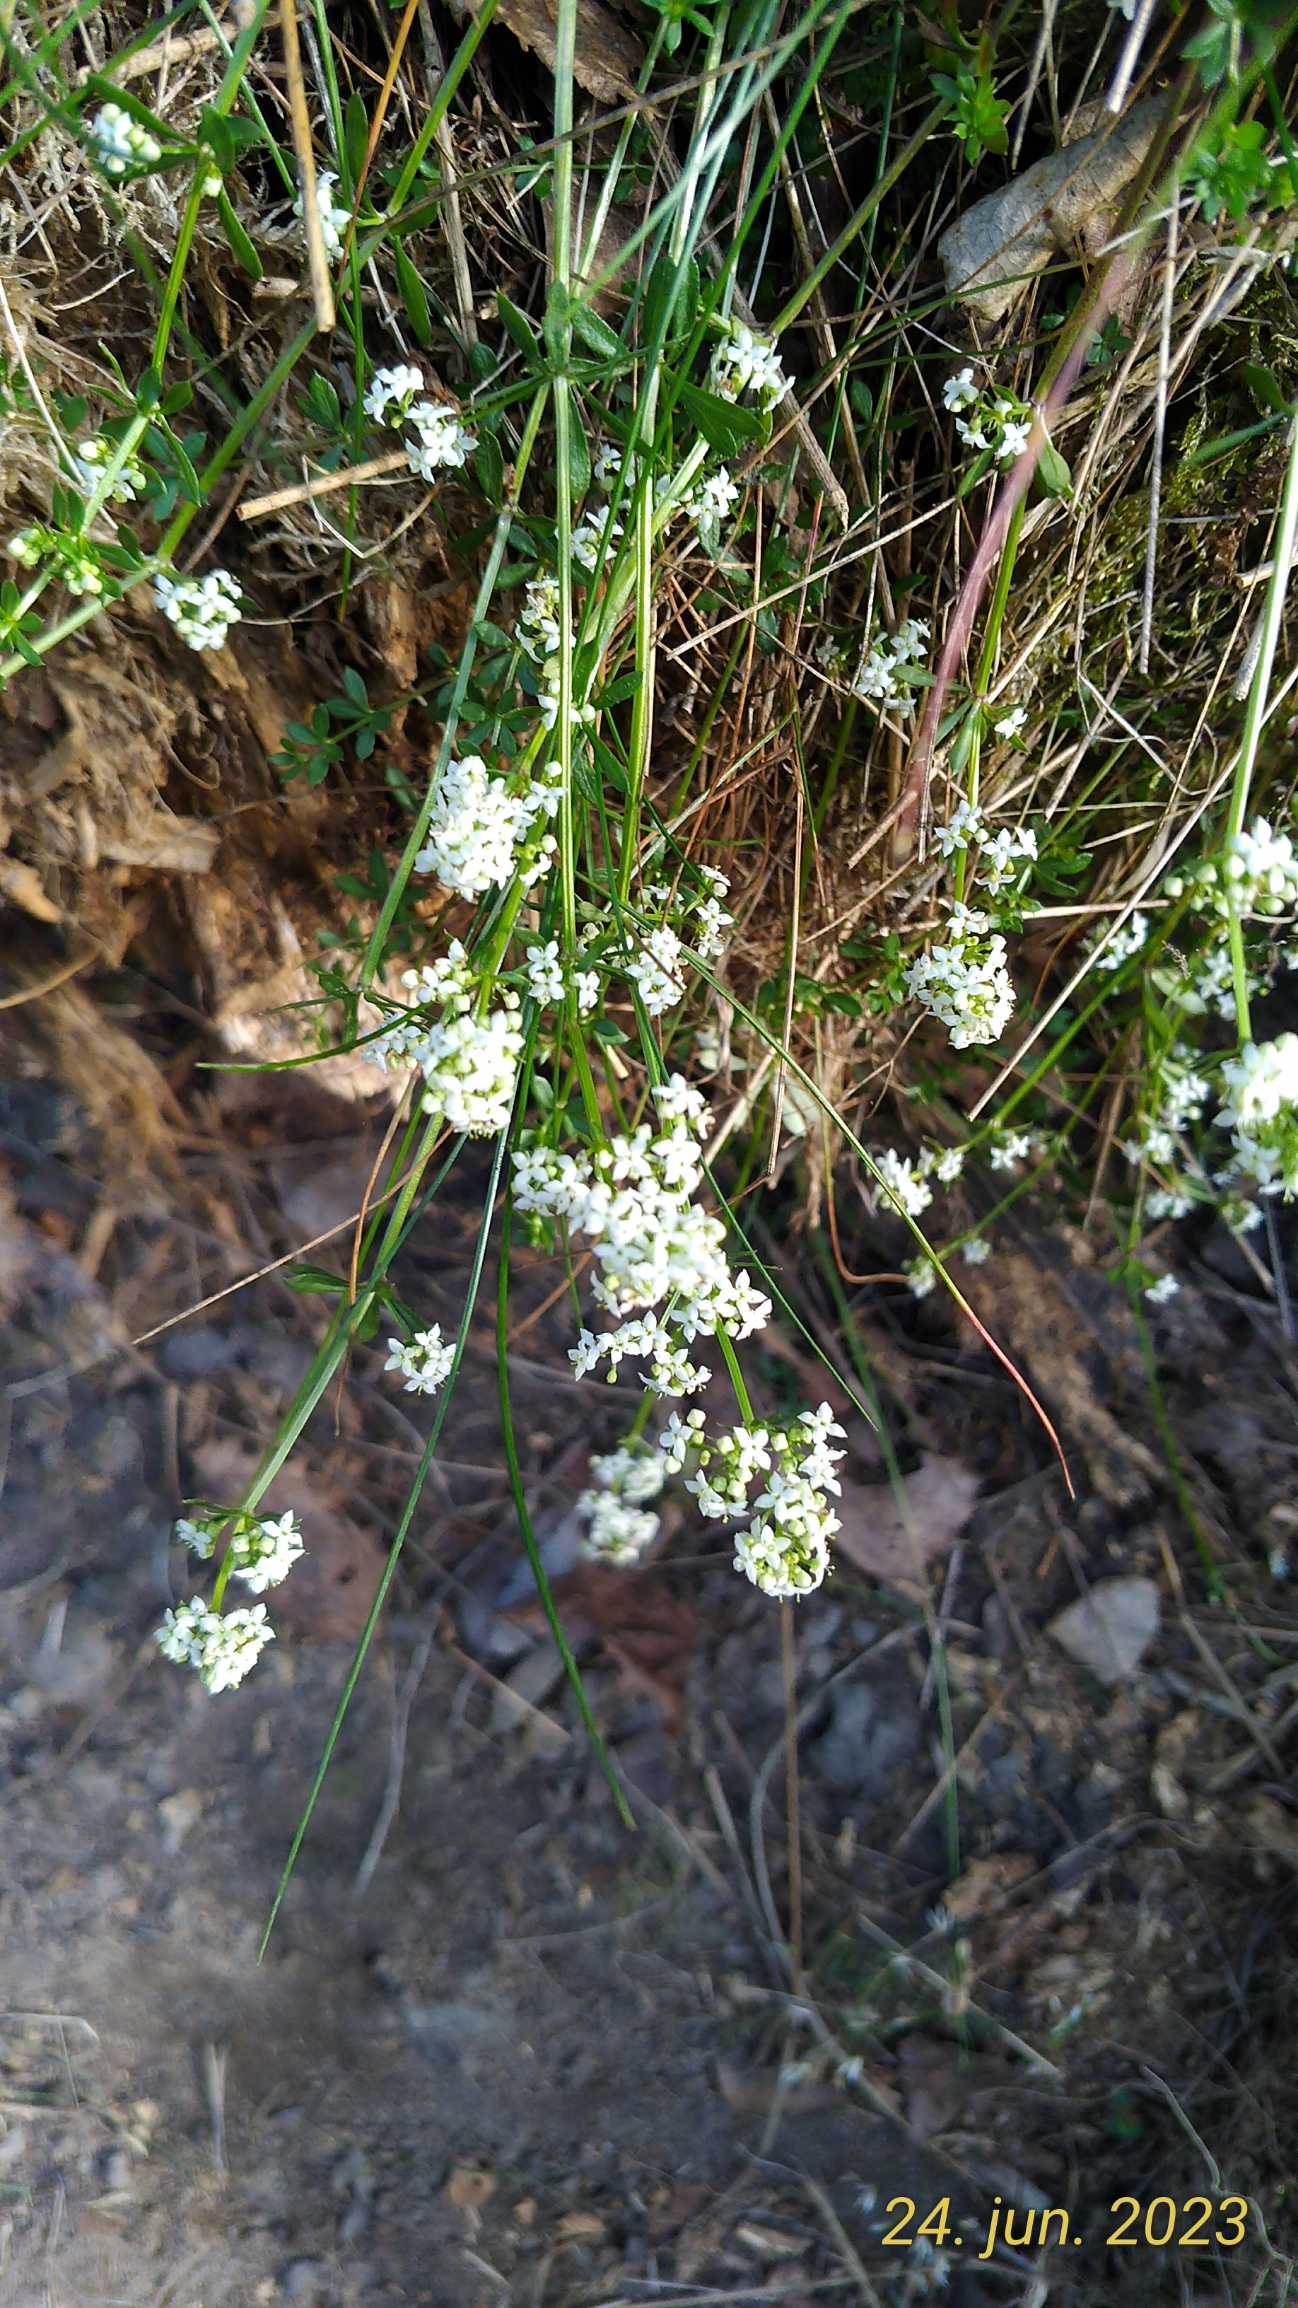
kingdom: Plantae
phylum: Tracheophyta
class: Magnoliopsida
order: Gentianales
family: Rubiaceae
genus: Galium
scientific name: Galium saxatile
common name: Lyng-snerre
